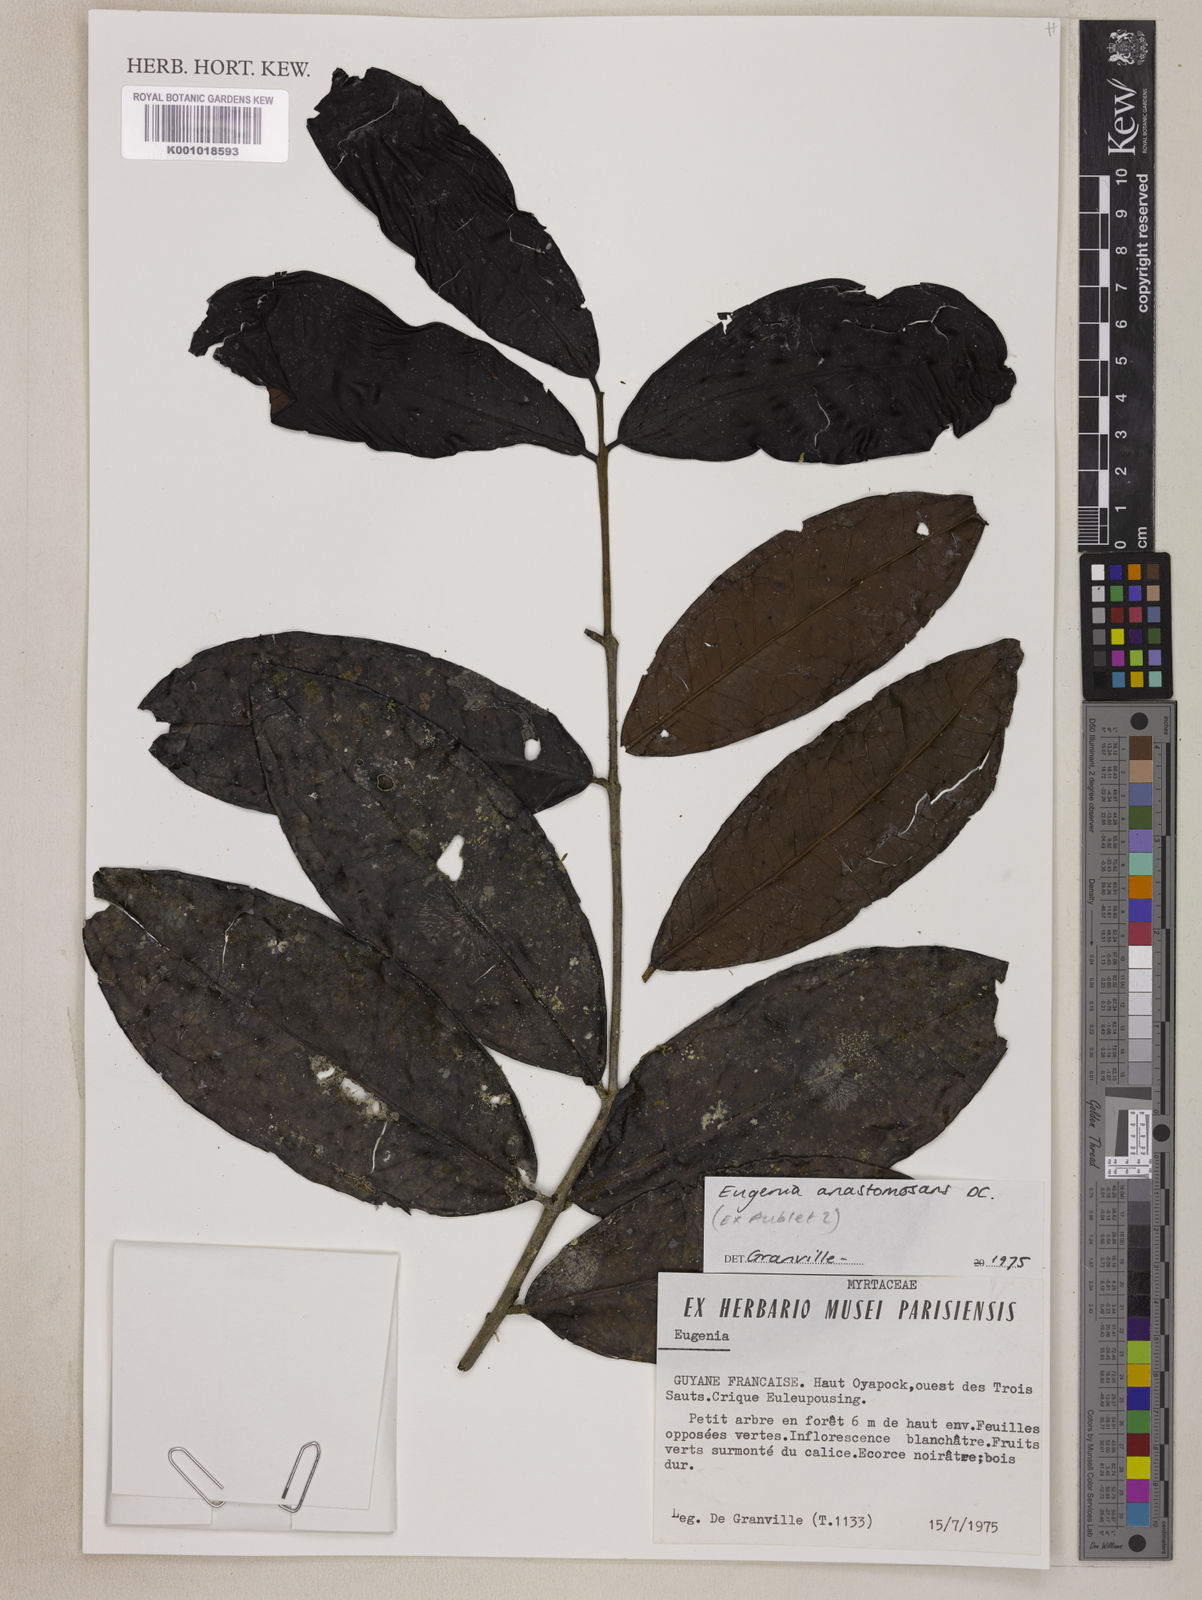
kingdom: Plantae
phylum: Tracheophyta
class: Magnoliopsida
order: Myrtales
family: Myrtaceae
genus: Eugenia
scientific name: Eugenia anastomosans
